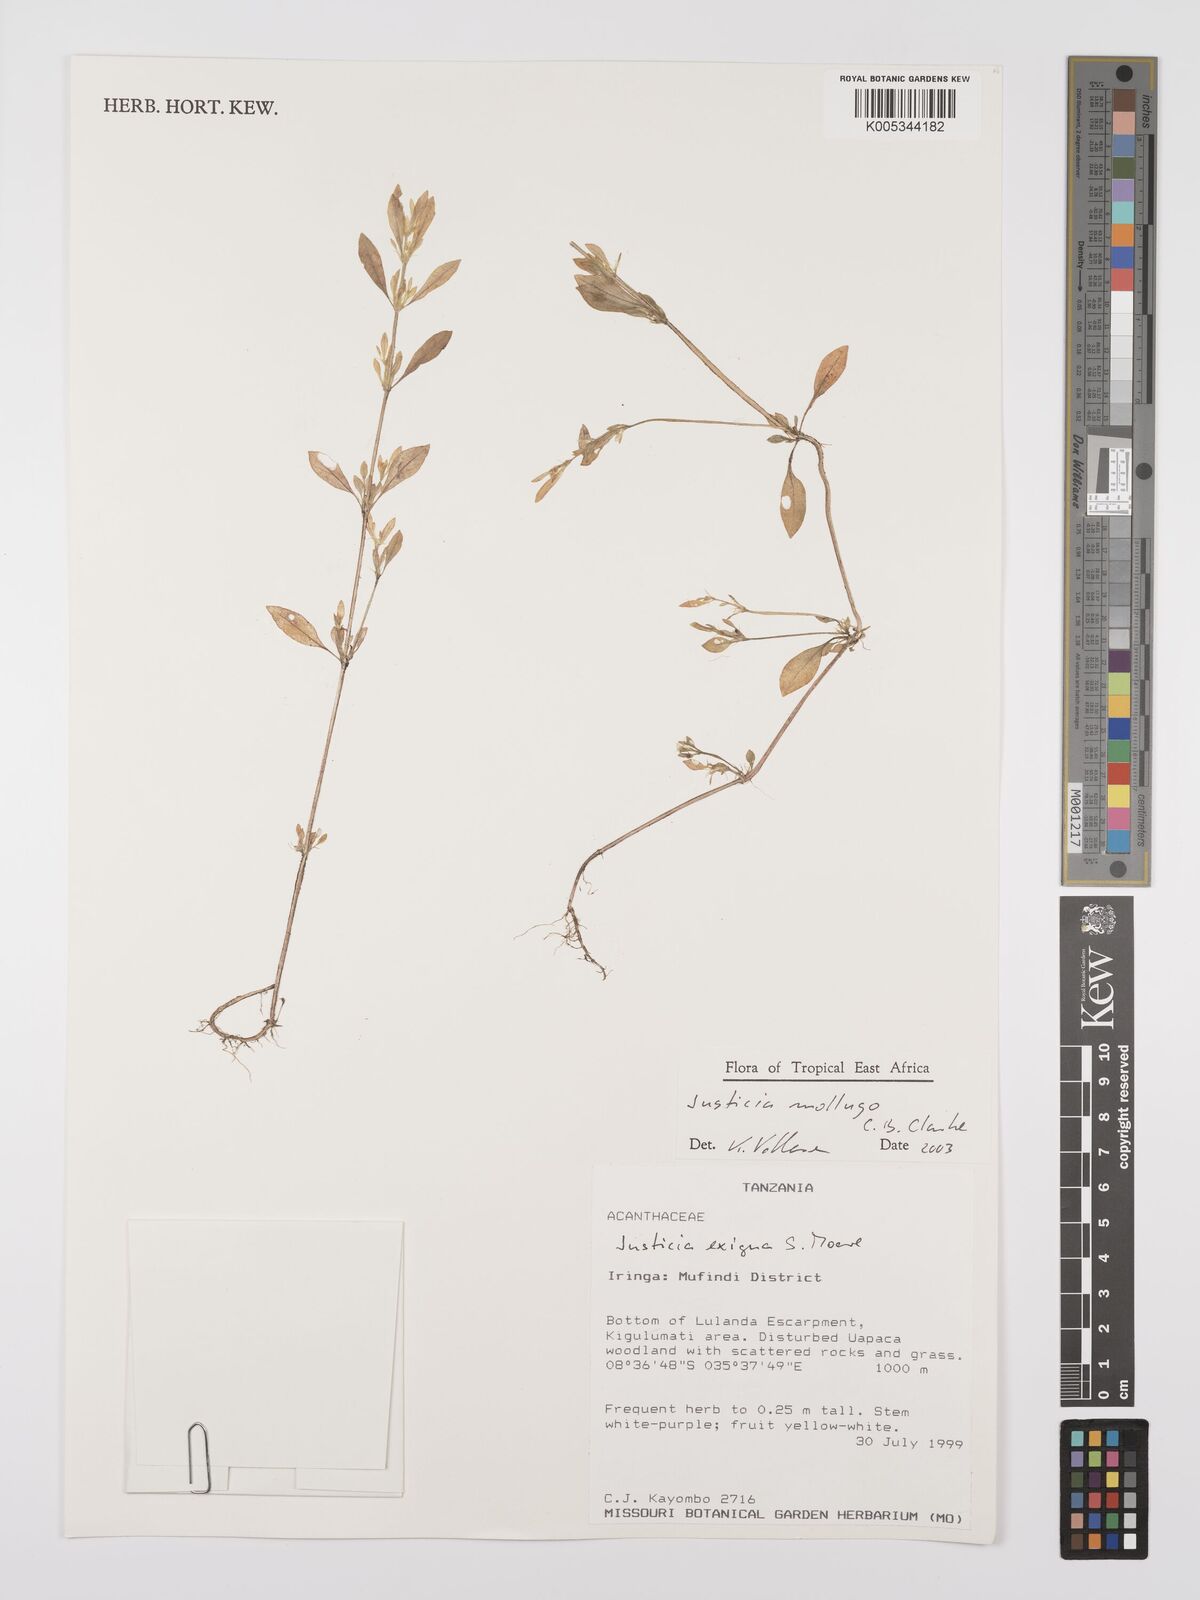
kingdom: Plantae
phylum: Tracheophyta
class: Magnoliopsida
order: Lamiales
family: Acanthaceae
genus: Justicia
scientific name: Justicia mollugo
